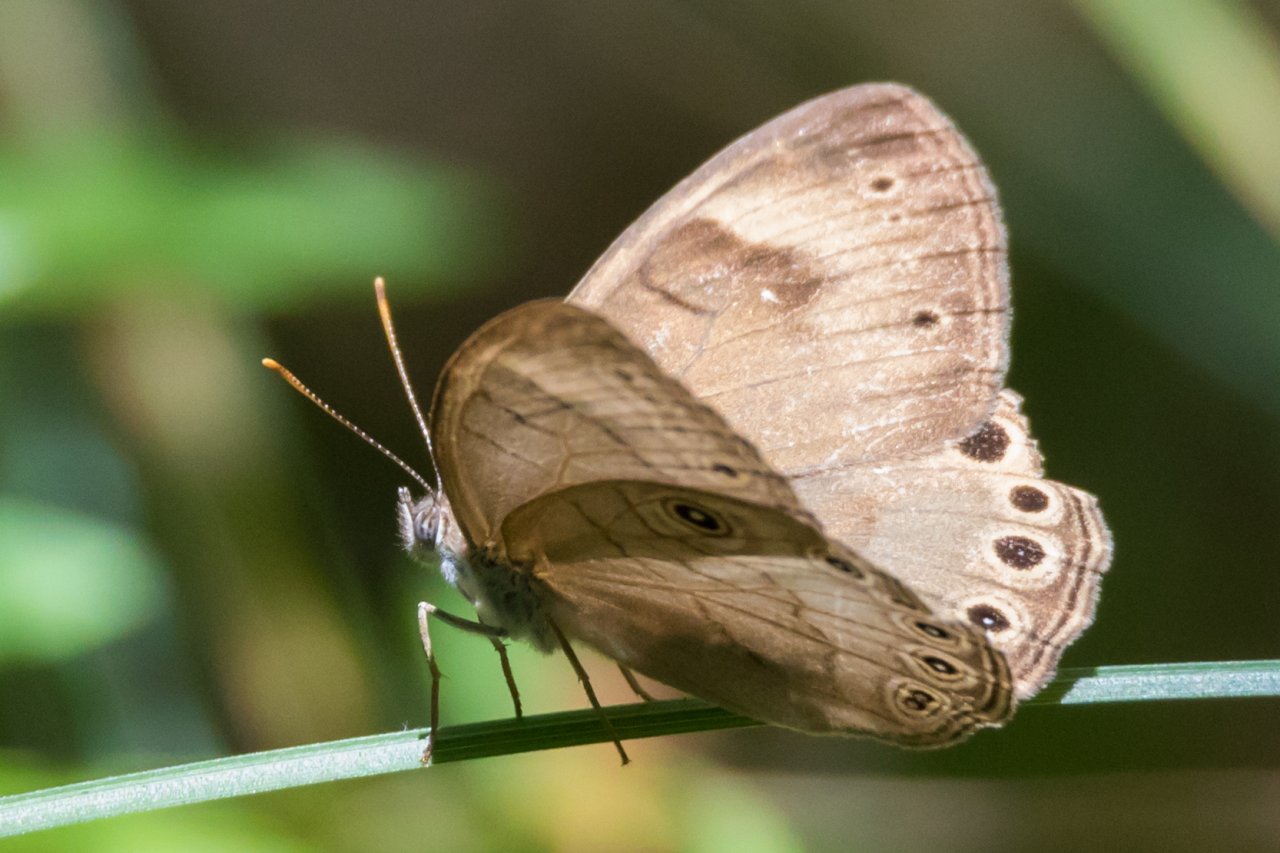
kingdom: Animalia
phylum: Arthropoda
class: Insecta
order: Lepidoptera
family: Nymphalidae
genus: Lethe
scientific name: Lethe eurydice
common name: Appalachian Eyed Brown
